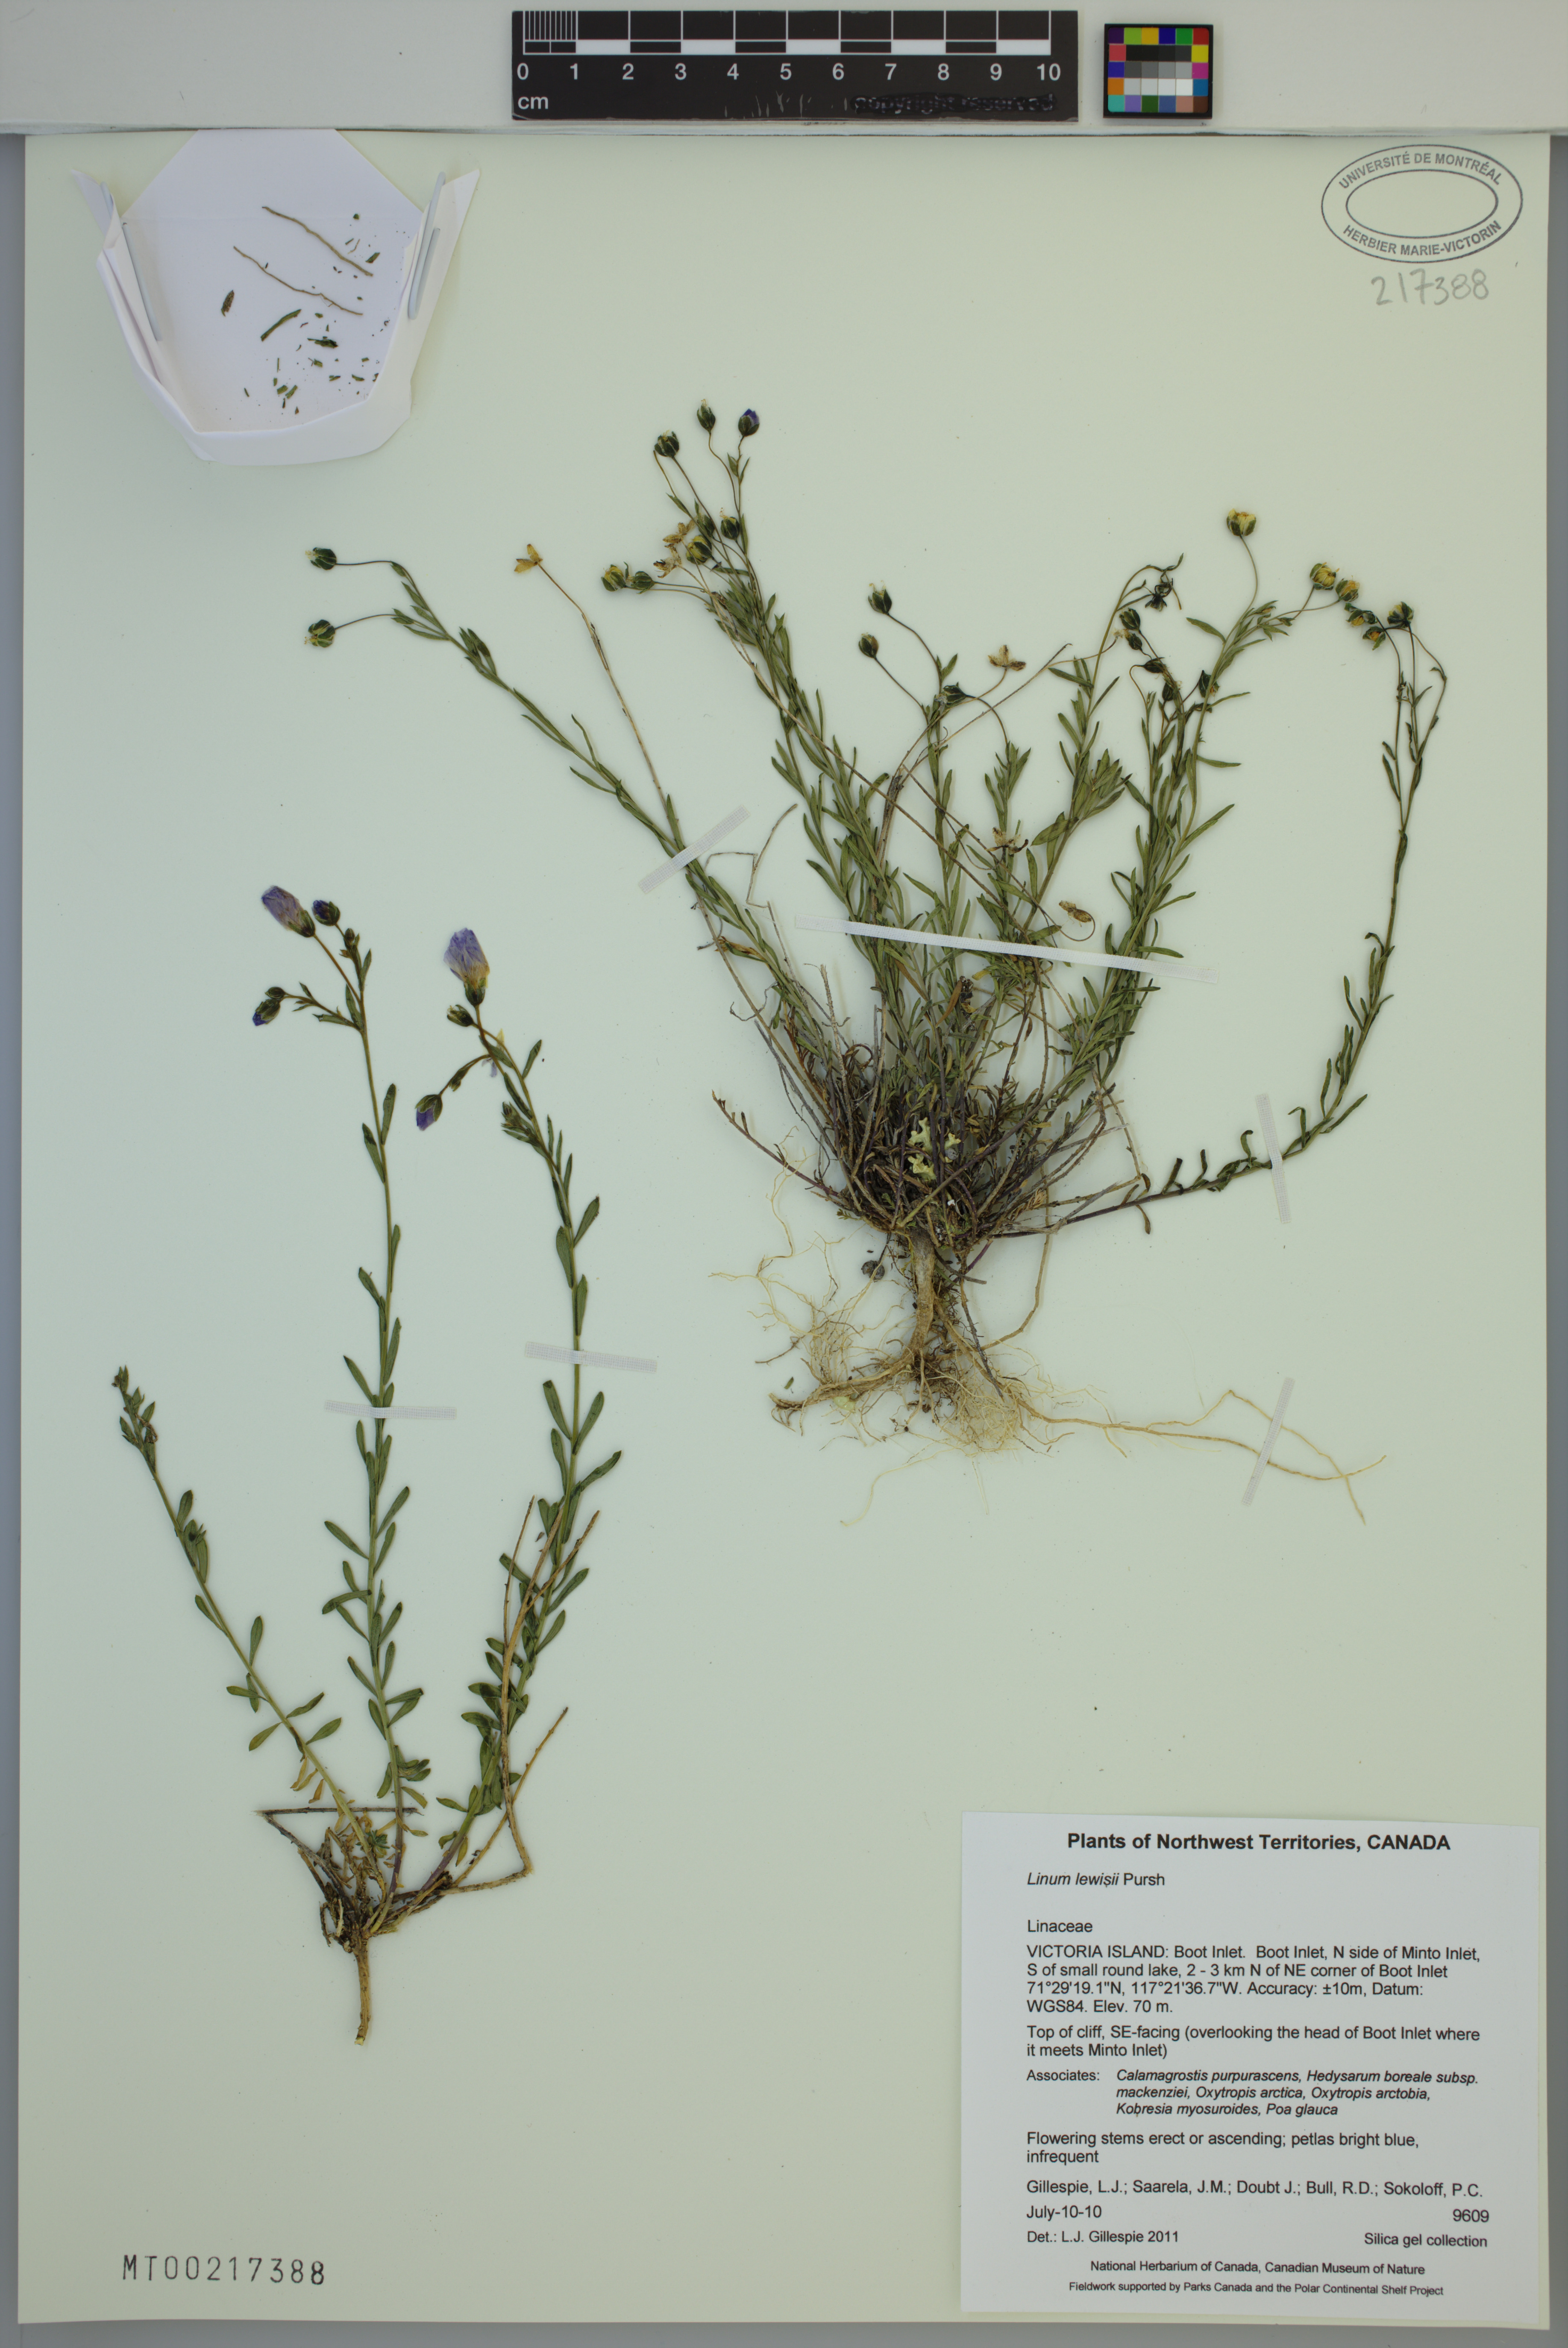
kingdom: Plantae
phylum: Tracheophyta
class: Magnoliopsida
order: Malpighiales
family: Linaceae
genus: Linum
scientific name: Linum lewisii
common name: Prairie flax
